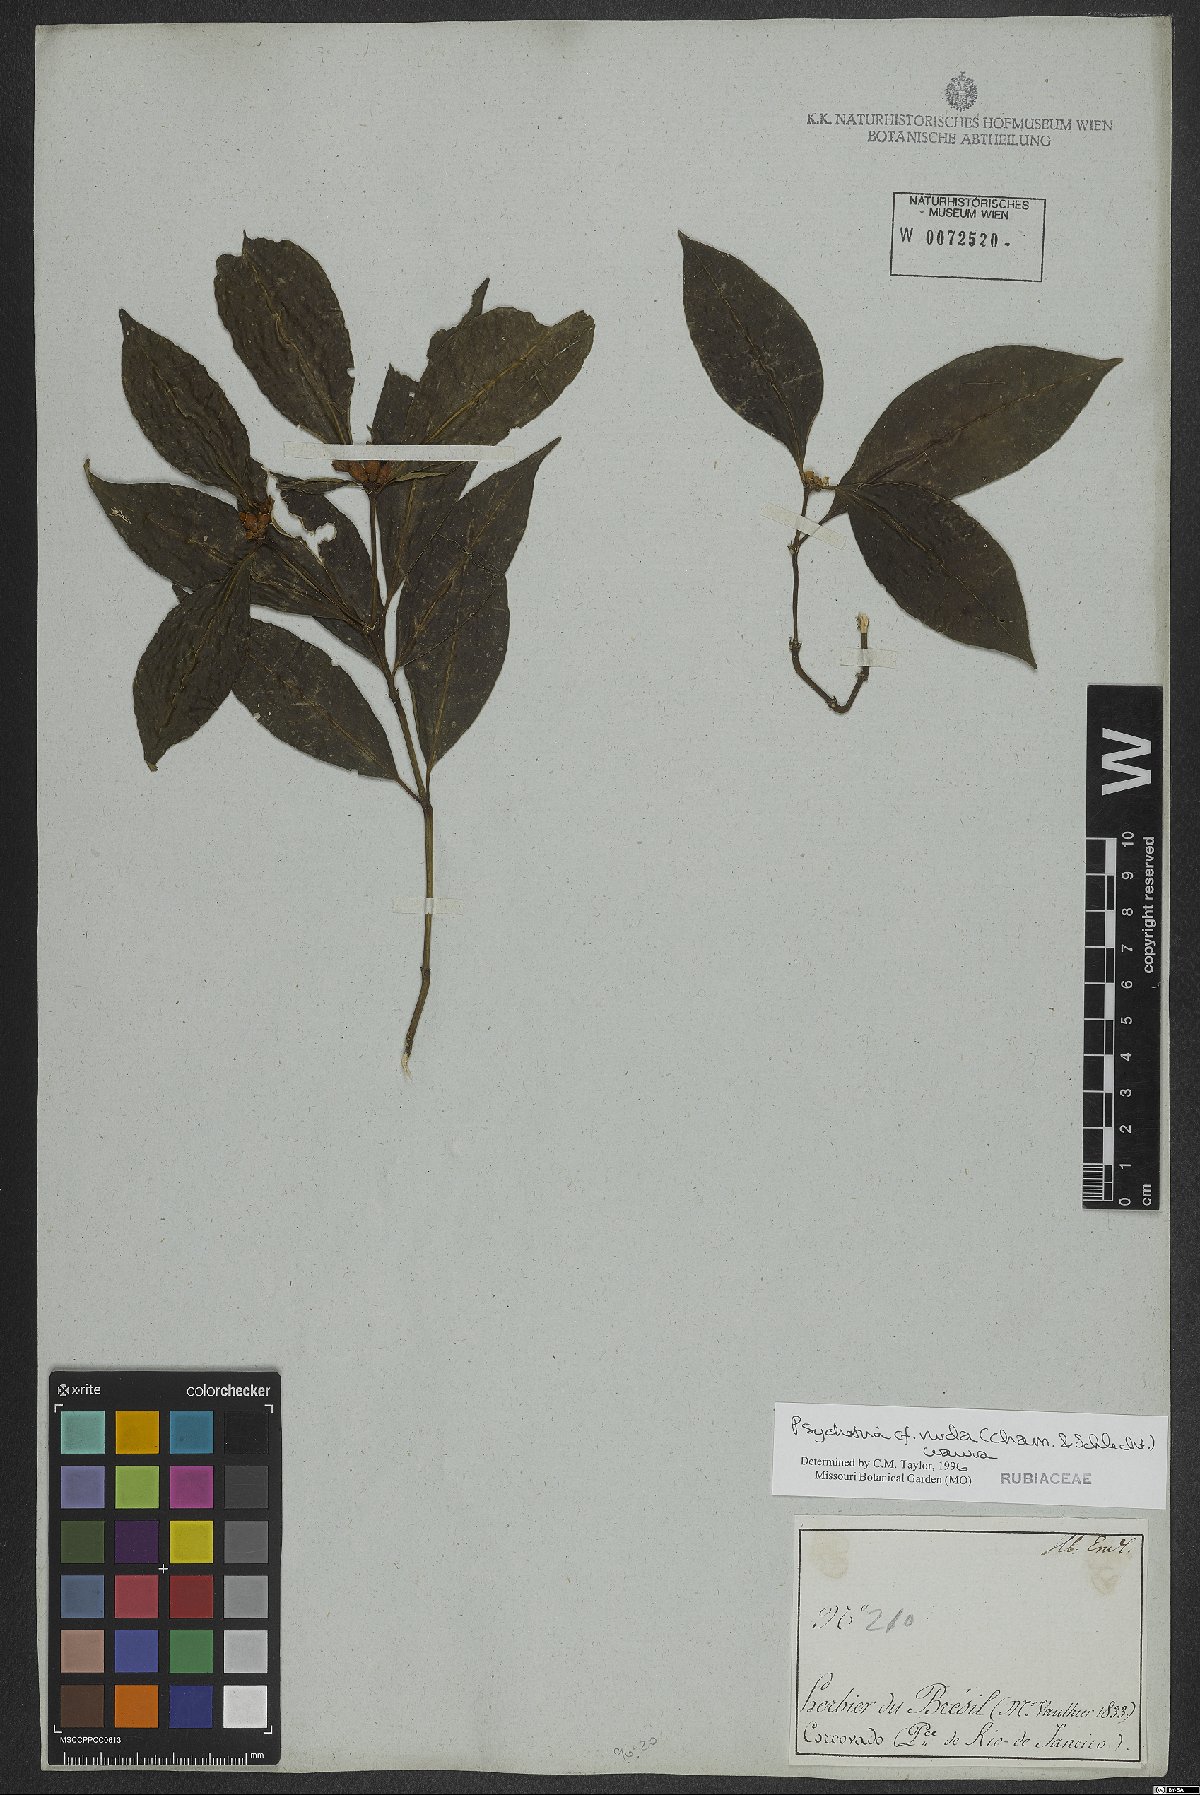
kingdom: Plantae
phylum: Tracheophyta
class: Magnoliopsida
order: Gentianales
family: Rubiaceae
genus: Psychotria
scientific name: Psychotria nuda
